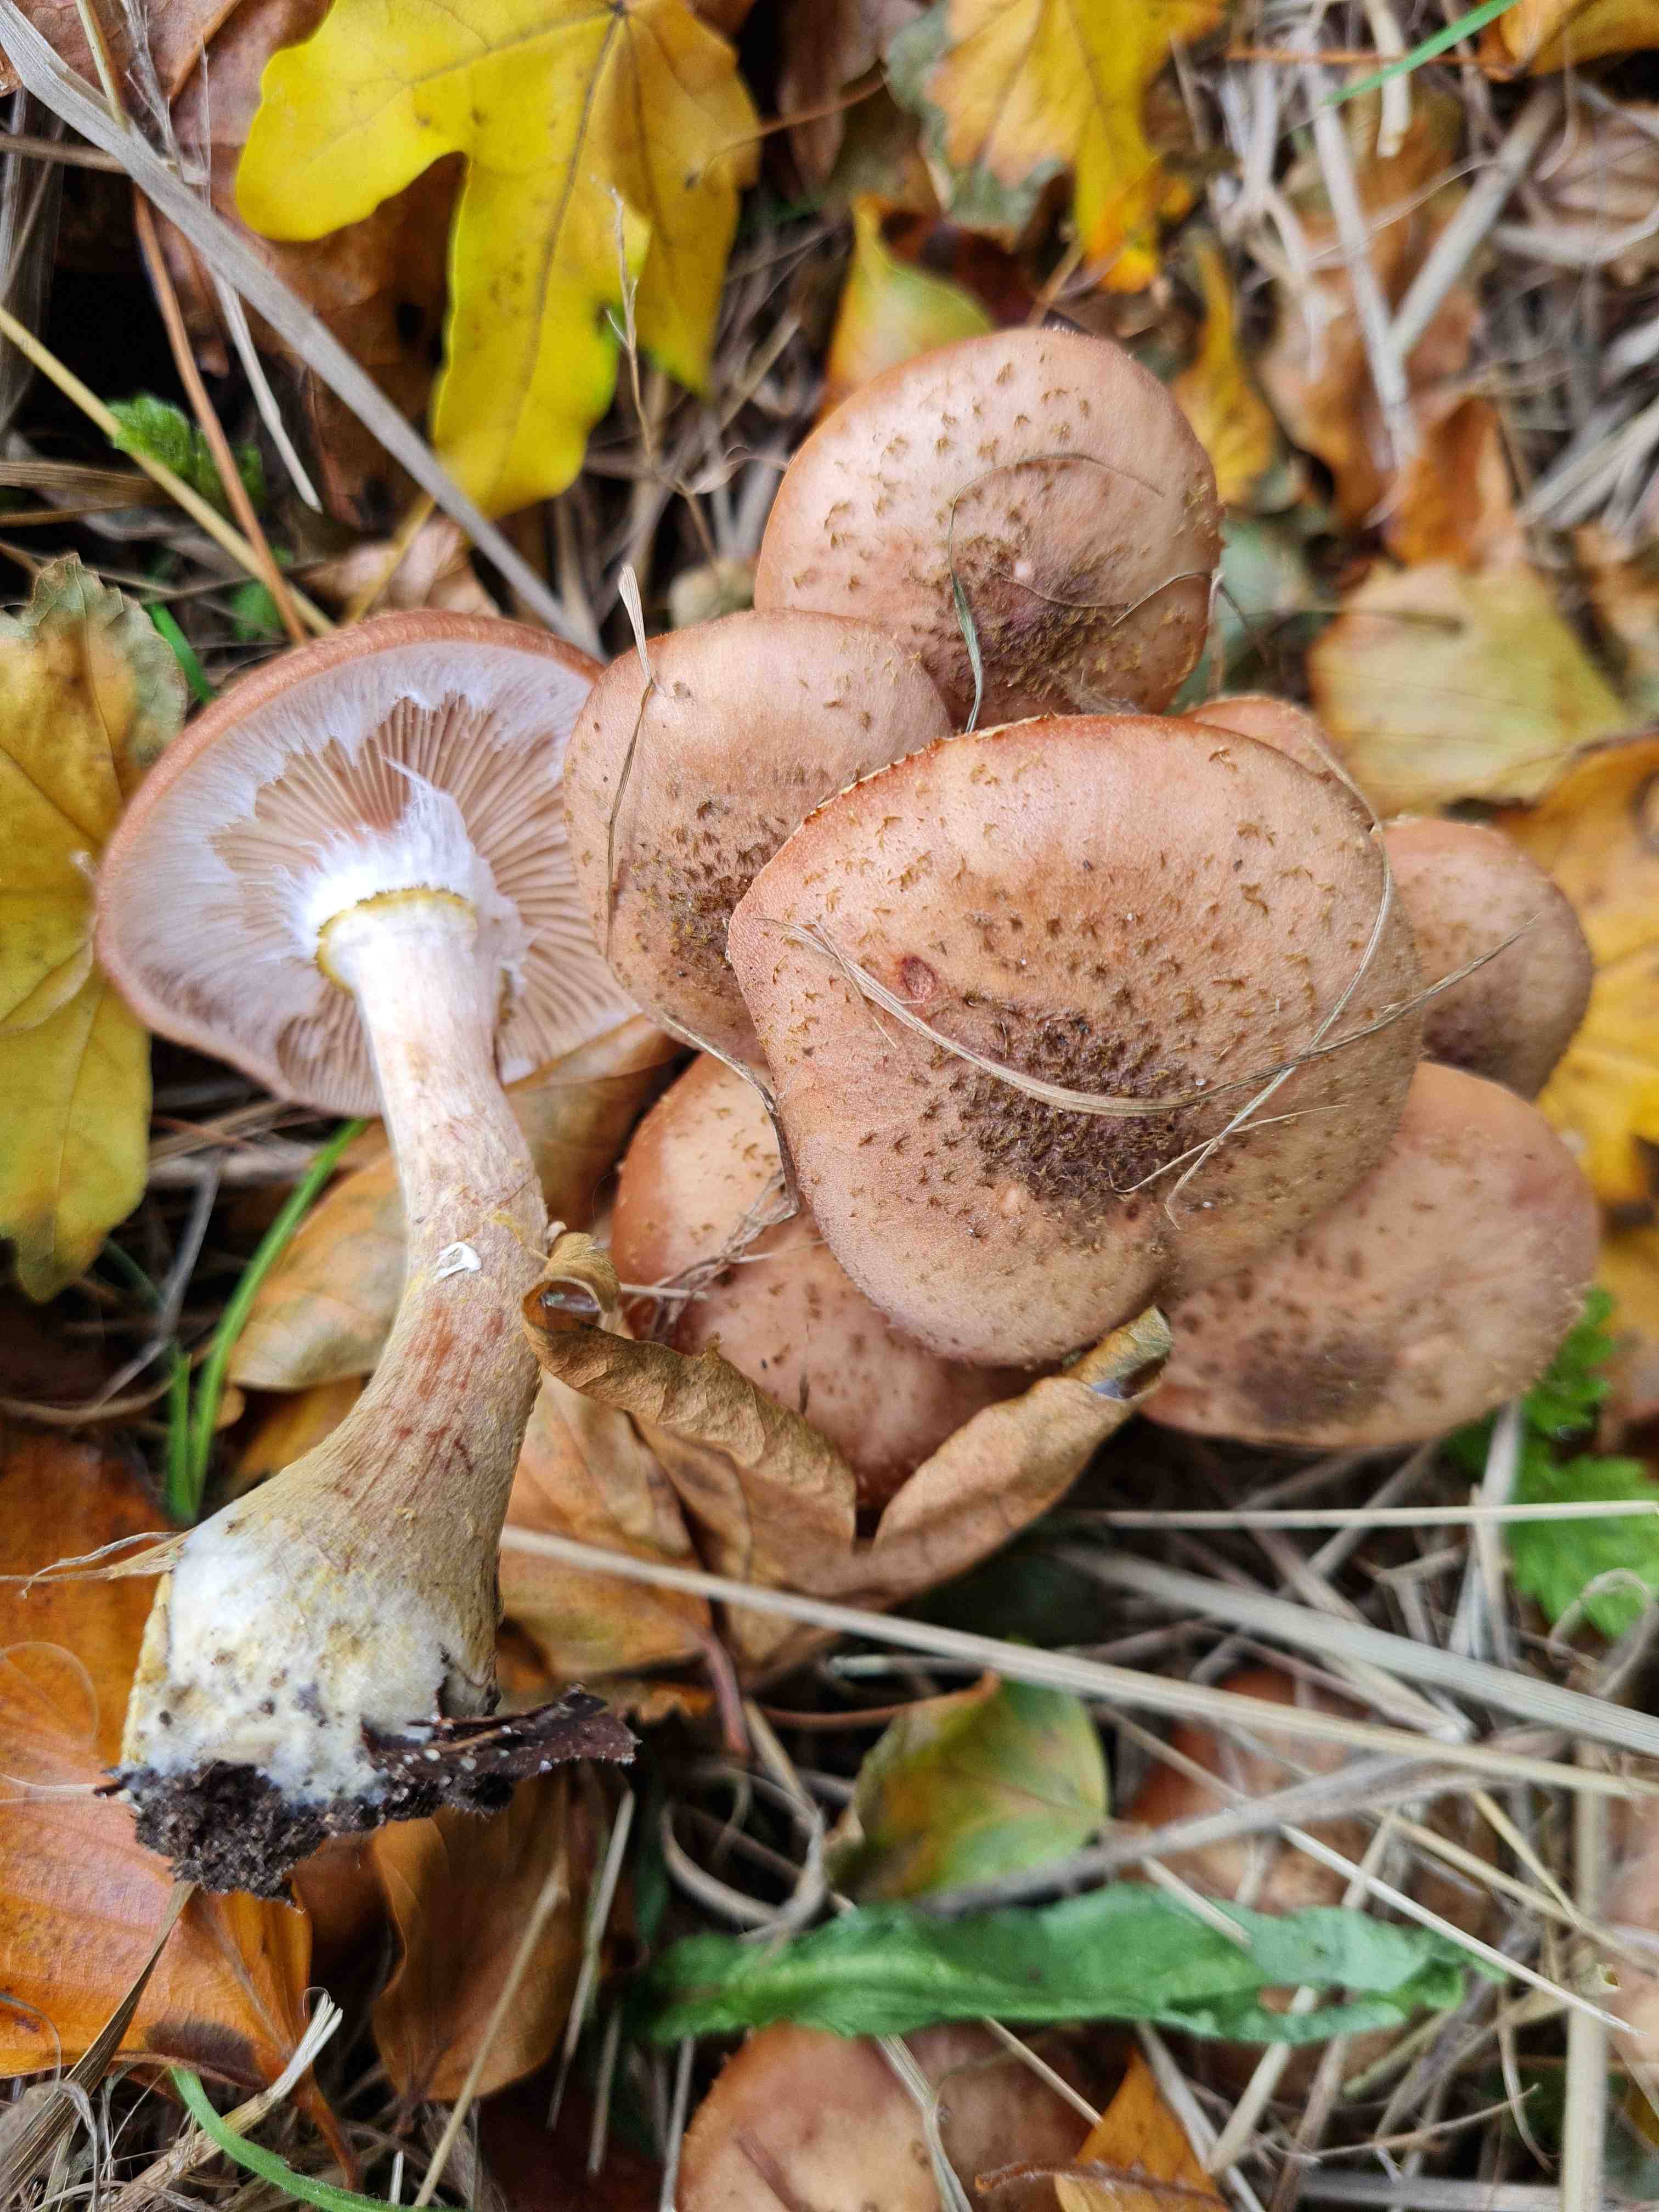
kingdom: Fungi
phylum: Basidiomycota
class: Agaricomycetes
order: Agaricales
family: Physalacriaceae
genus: Armillaria
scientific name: Armillaria lutea
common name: køllestokket honningsvamp
